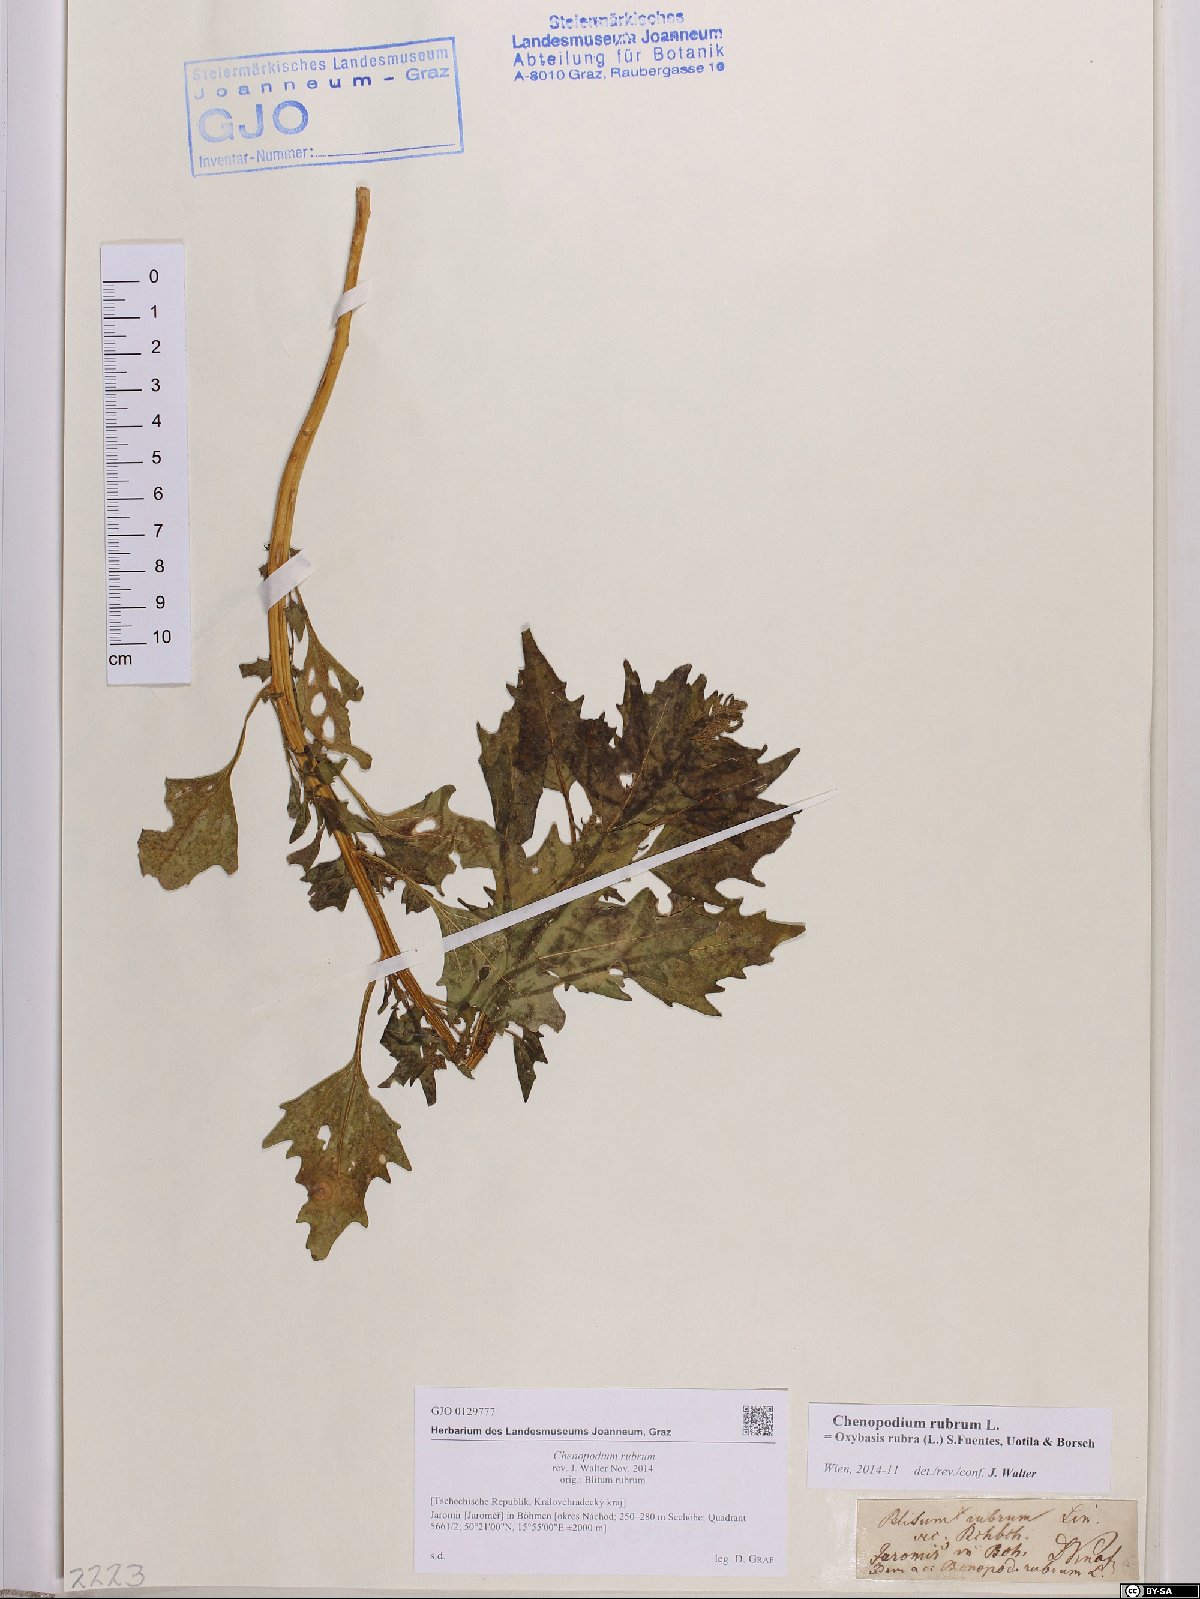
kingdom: Plantae
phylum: Tracheophyta
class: Magnoliopsida
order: Caryophyllales
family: Amaranthaceae
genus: Oxybasis
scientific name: Oxybasis rubra
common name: Red goosefoot
